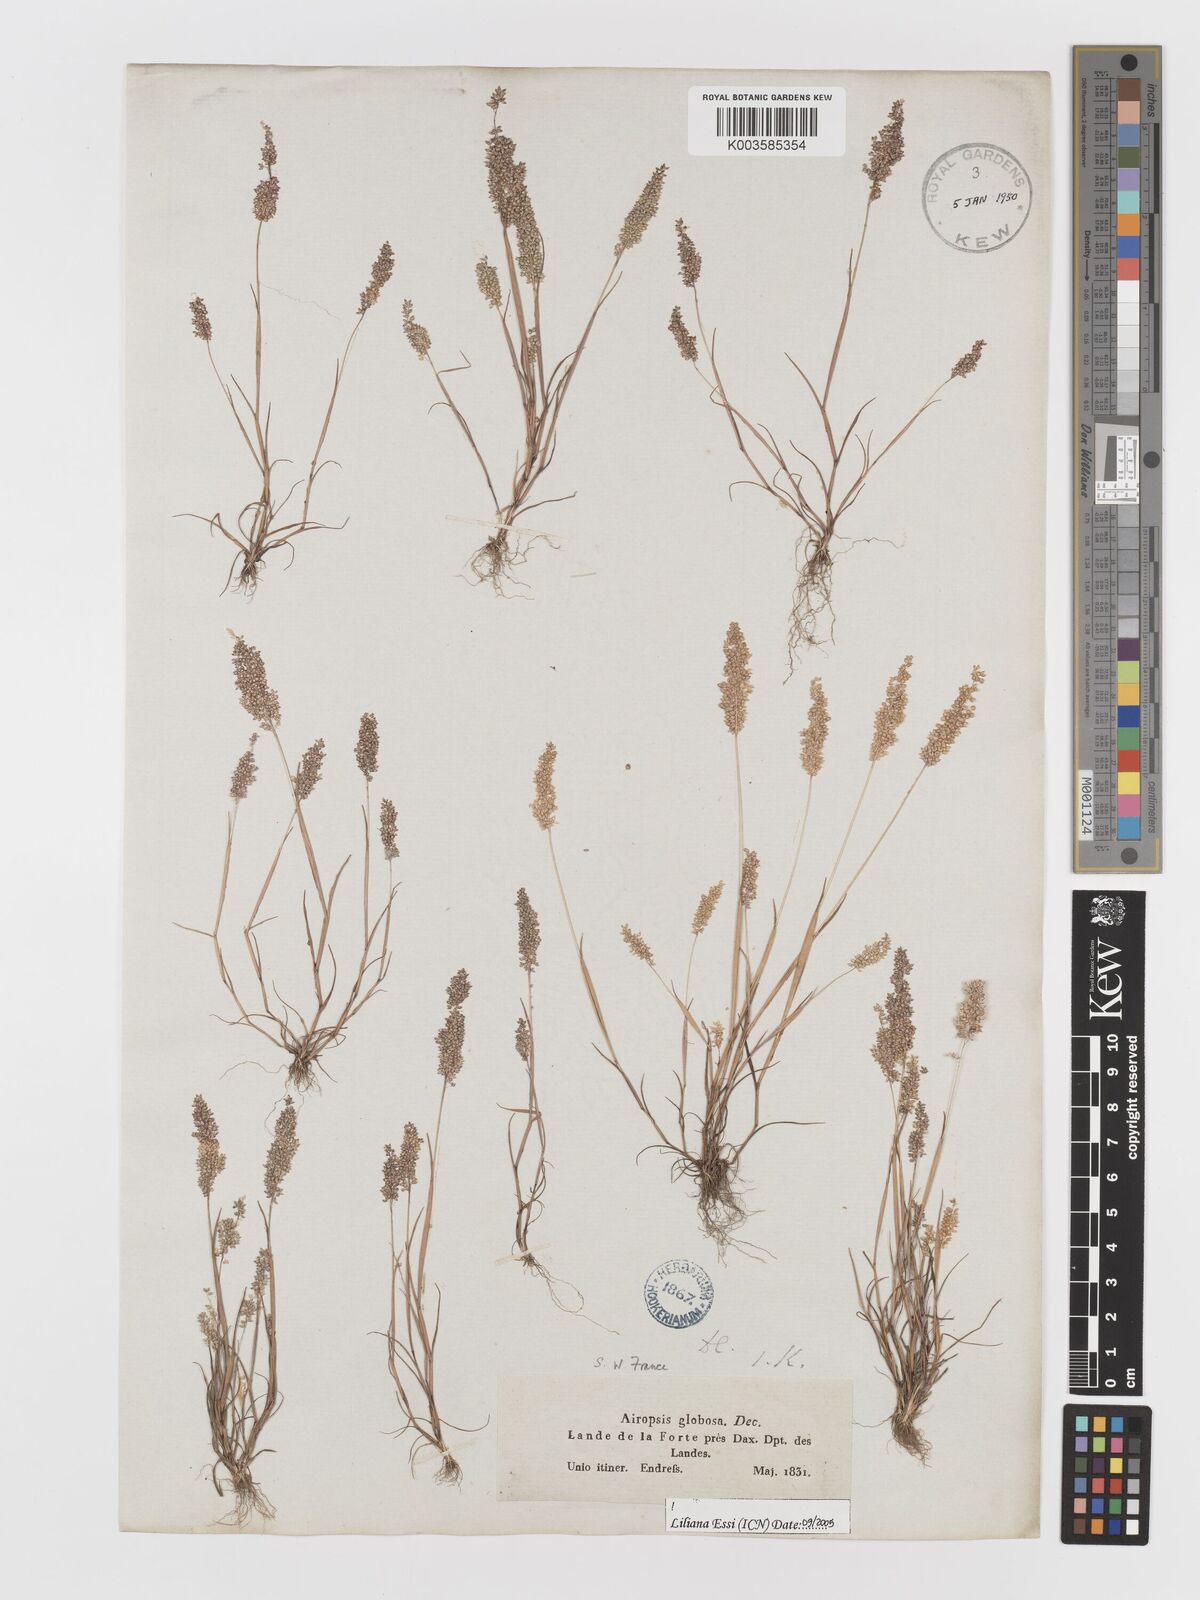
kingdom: Plantae
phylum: Tracheophyta
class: Liliopsida
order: Poales
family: Poaceae
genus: Airopsis
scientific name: Airopsis tenella
